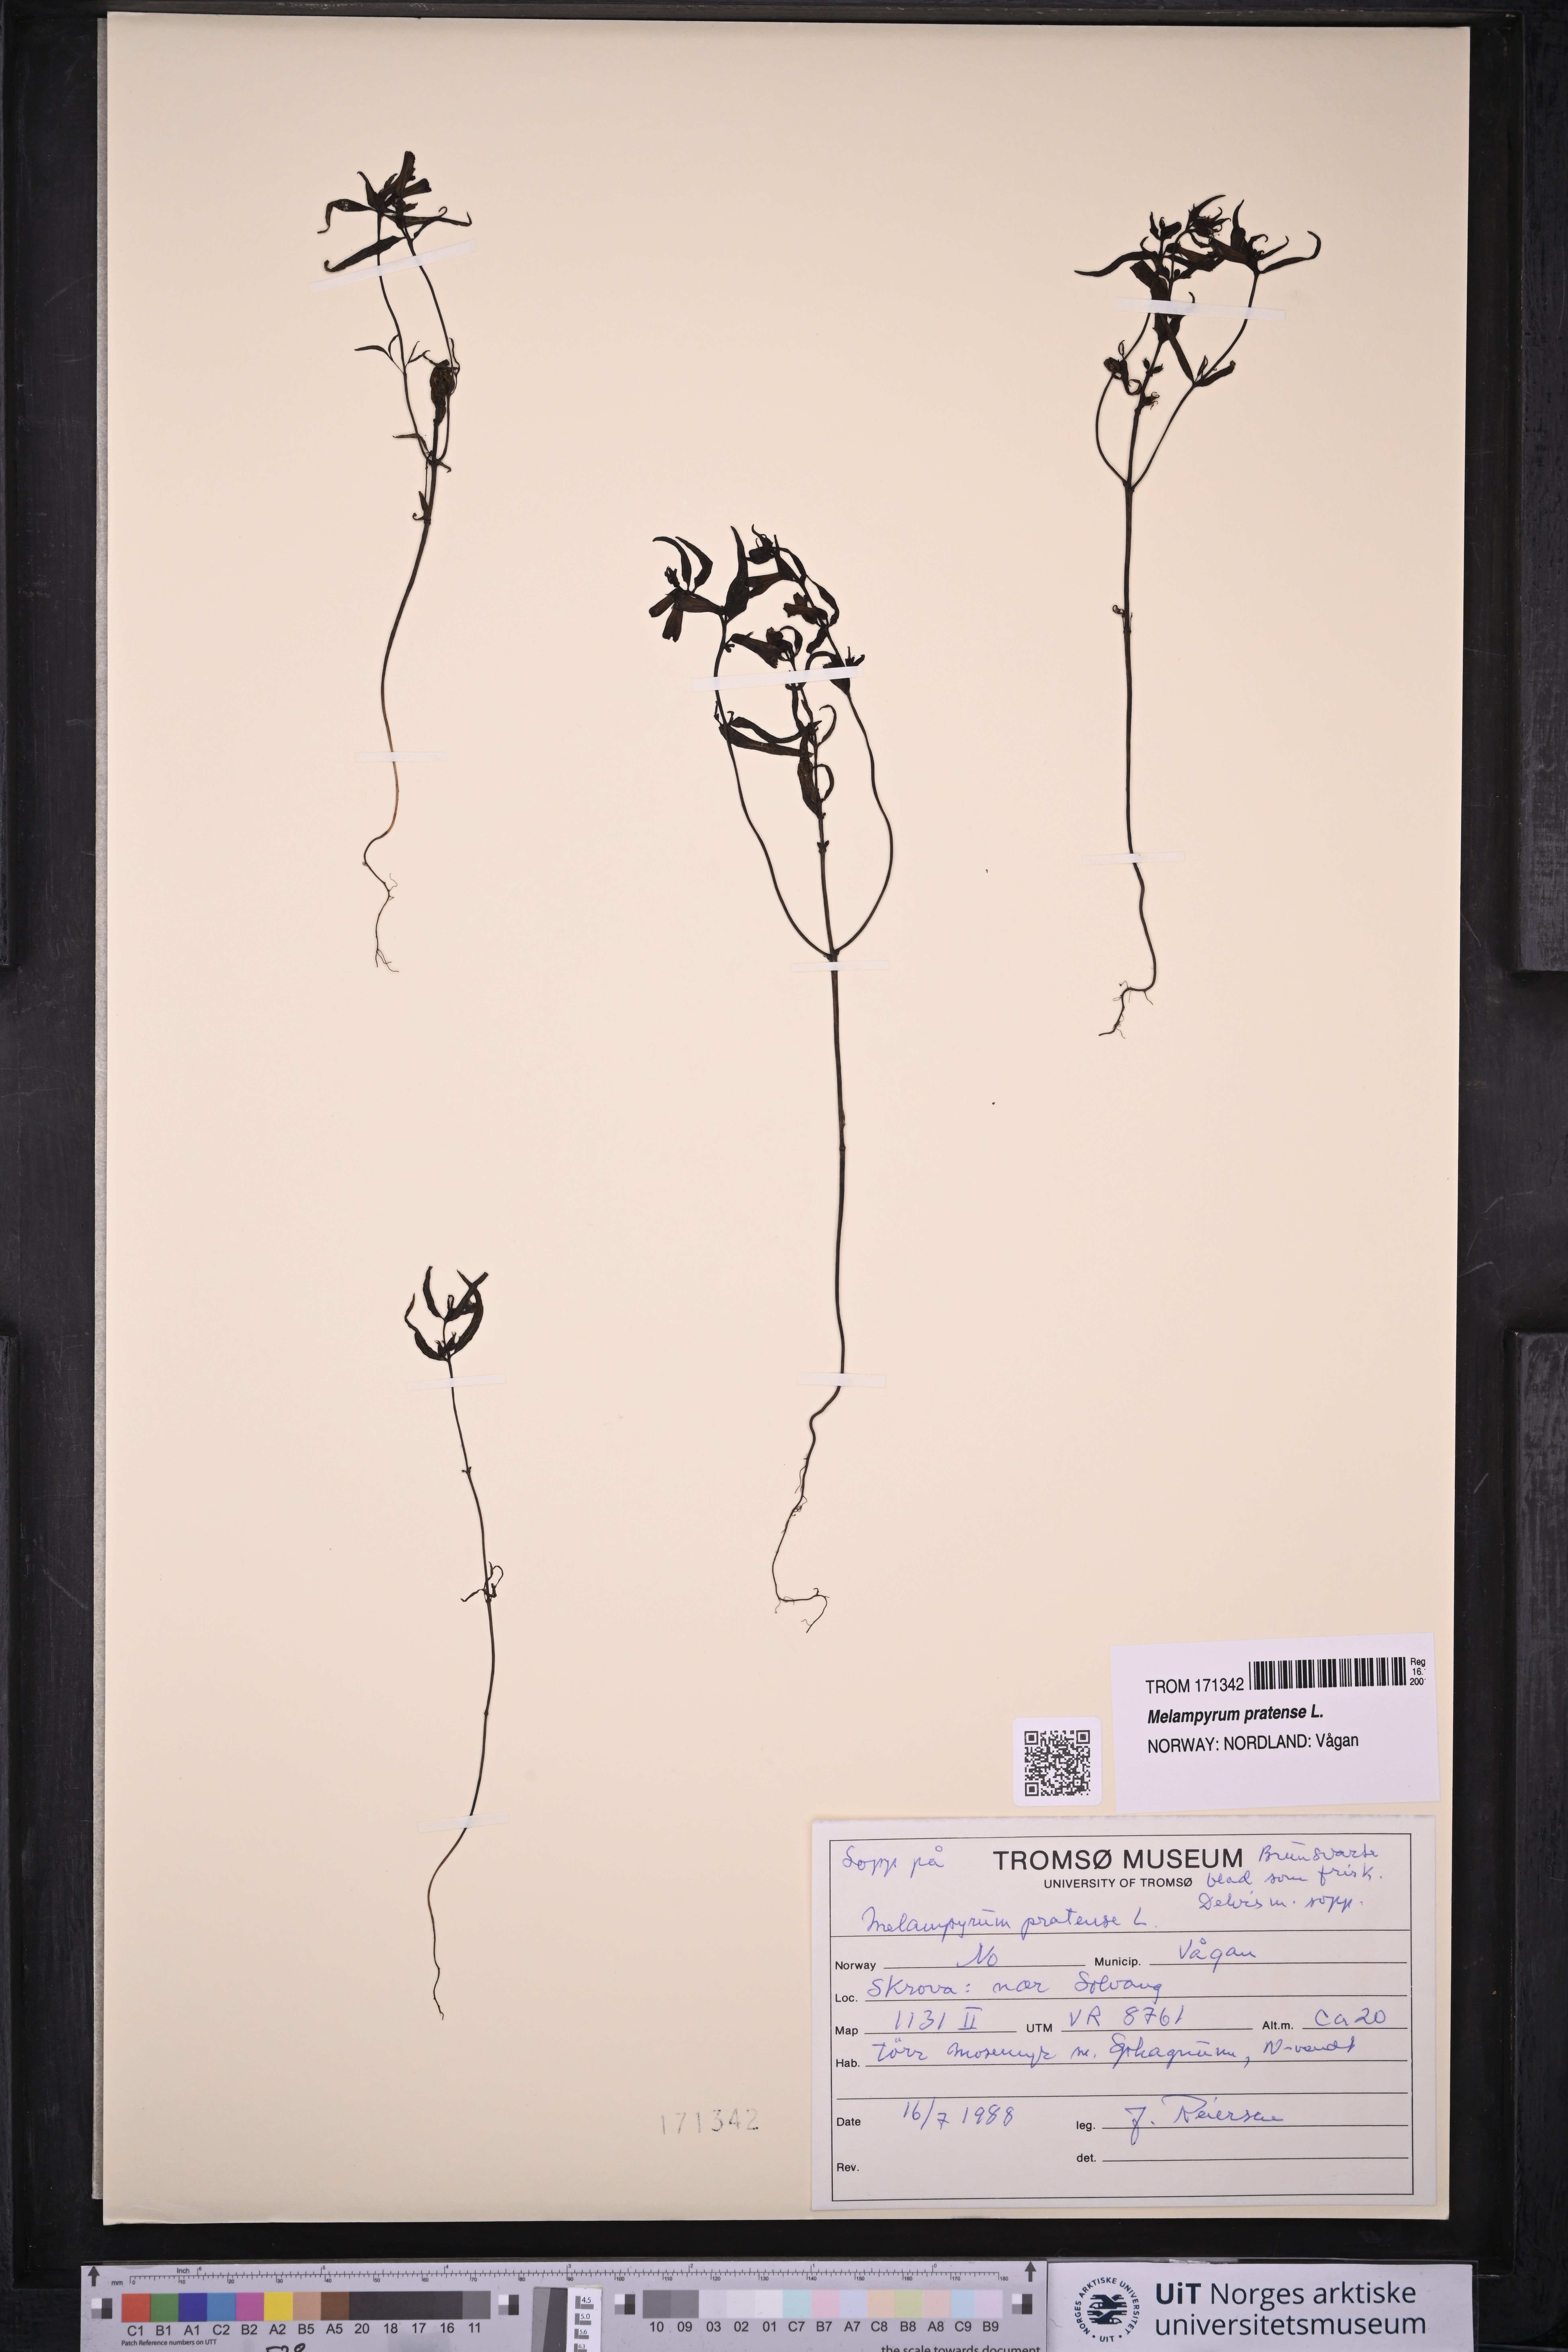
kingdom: Plantae
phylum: Tracheophyta
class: Magnoliopsida
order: Lamiales
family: Orobanchaceae
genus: Melampyrum
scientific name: Melampyrum pratense
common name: Common cow-wheat
